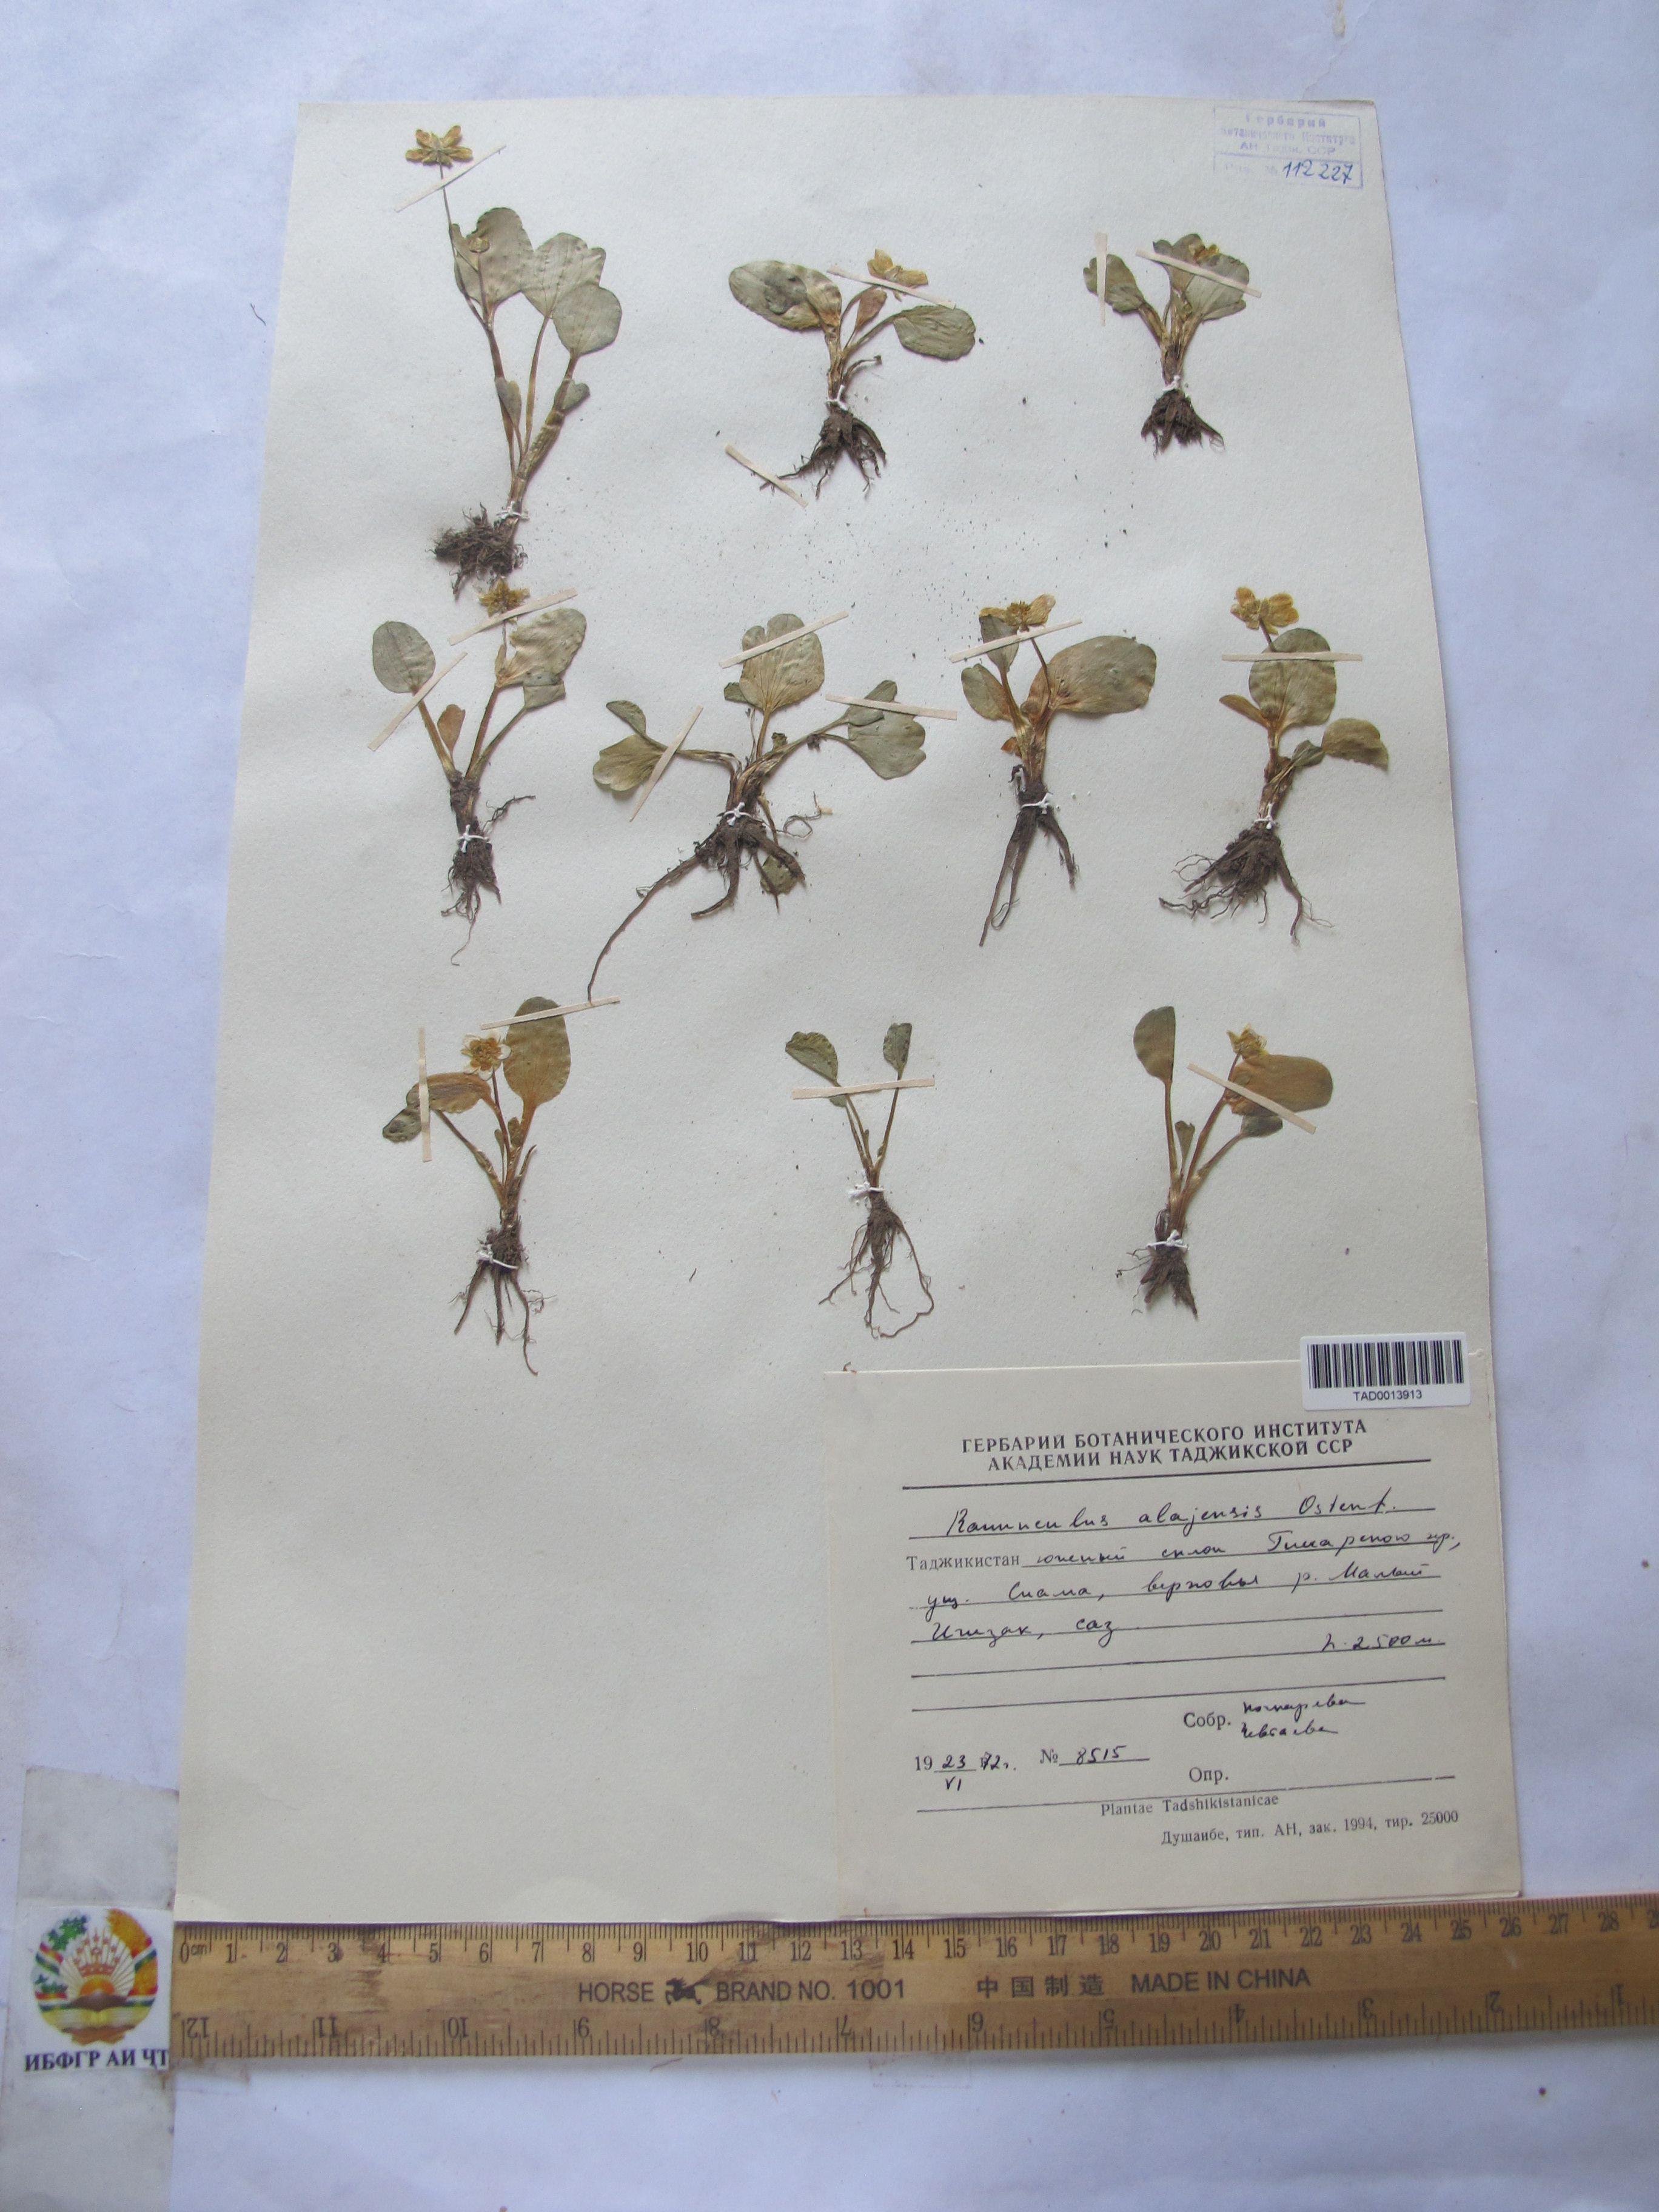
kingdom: Plantae
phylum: Tracheophyta
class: Magnoliopsida
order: Ranunculales
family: Ranunculaceae
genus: Ranunculus
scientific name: Ranunculus alaiensis
